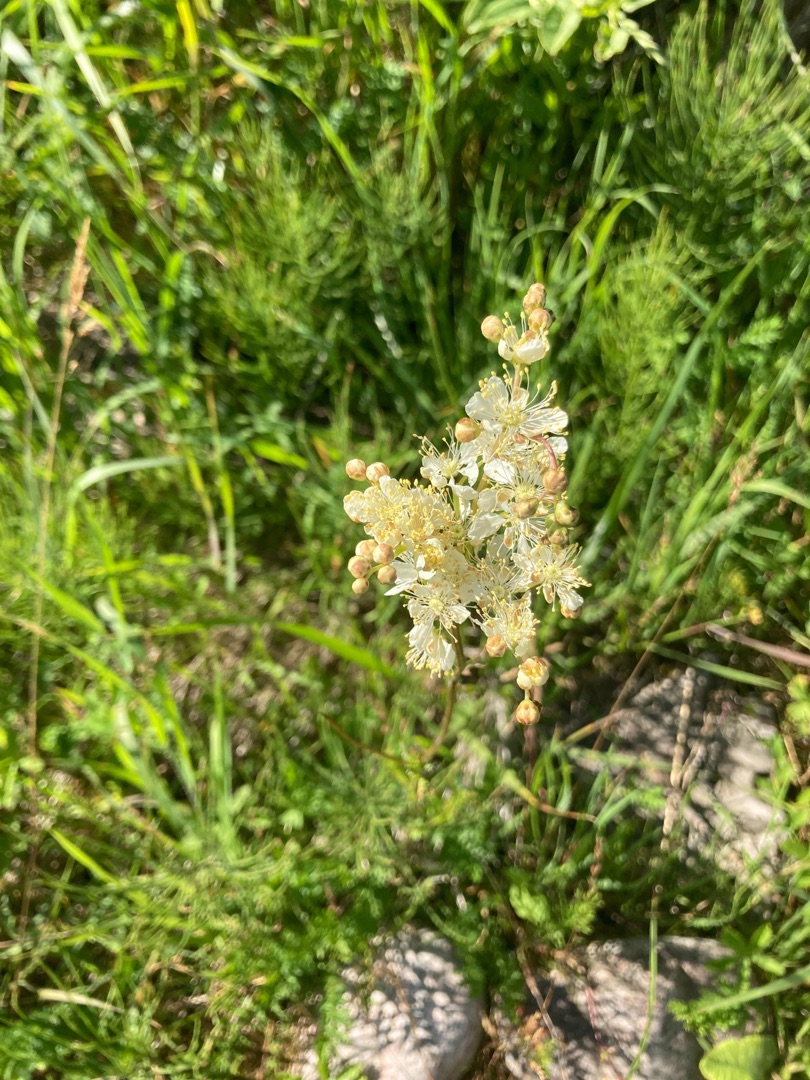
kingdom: Plantae
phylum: Tracheophyta
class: Magnoliopsida
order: Rosales
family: Rosaceae
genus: Filipendula
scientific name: Filipendula vulgaris
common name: Knoldet mjødurt
